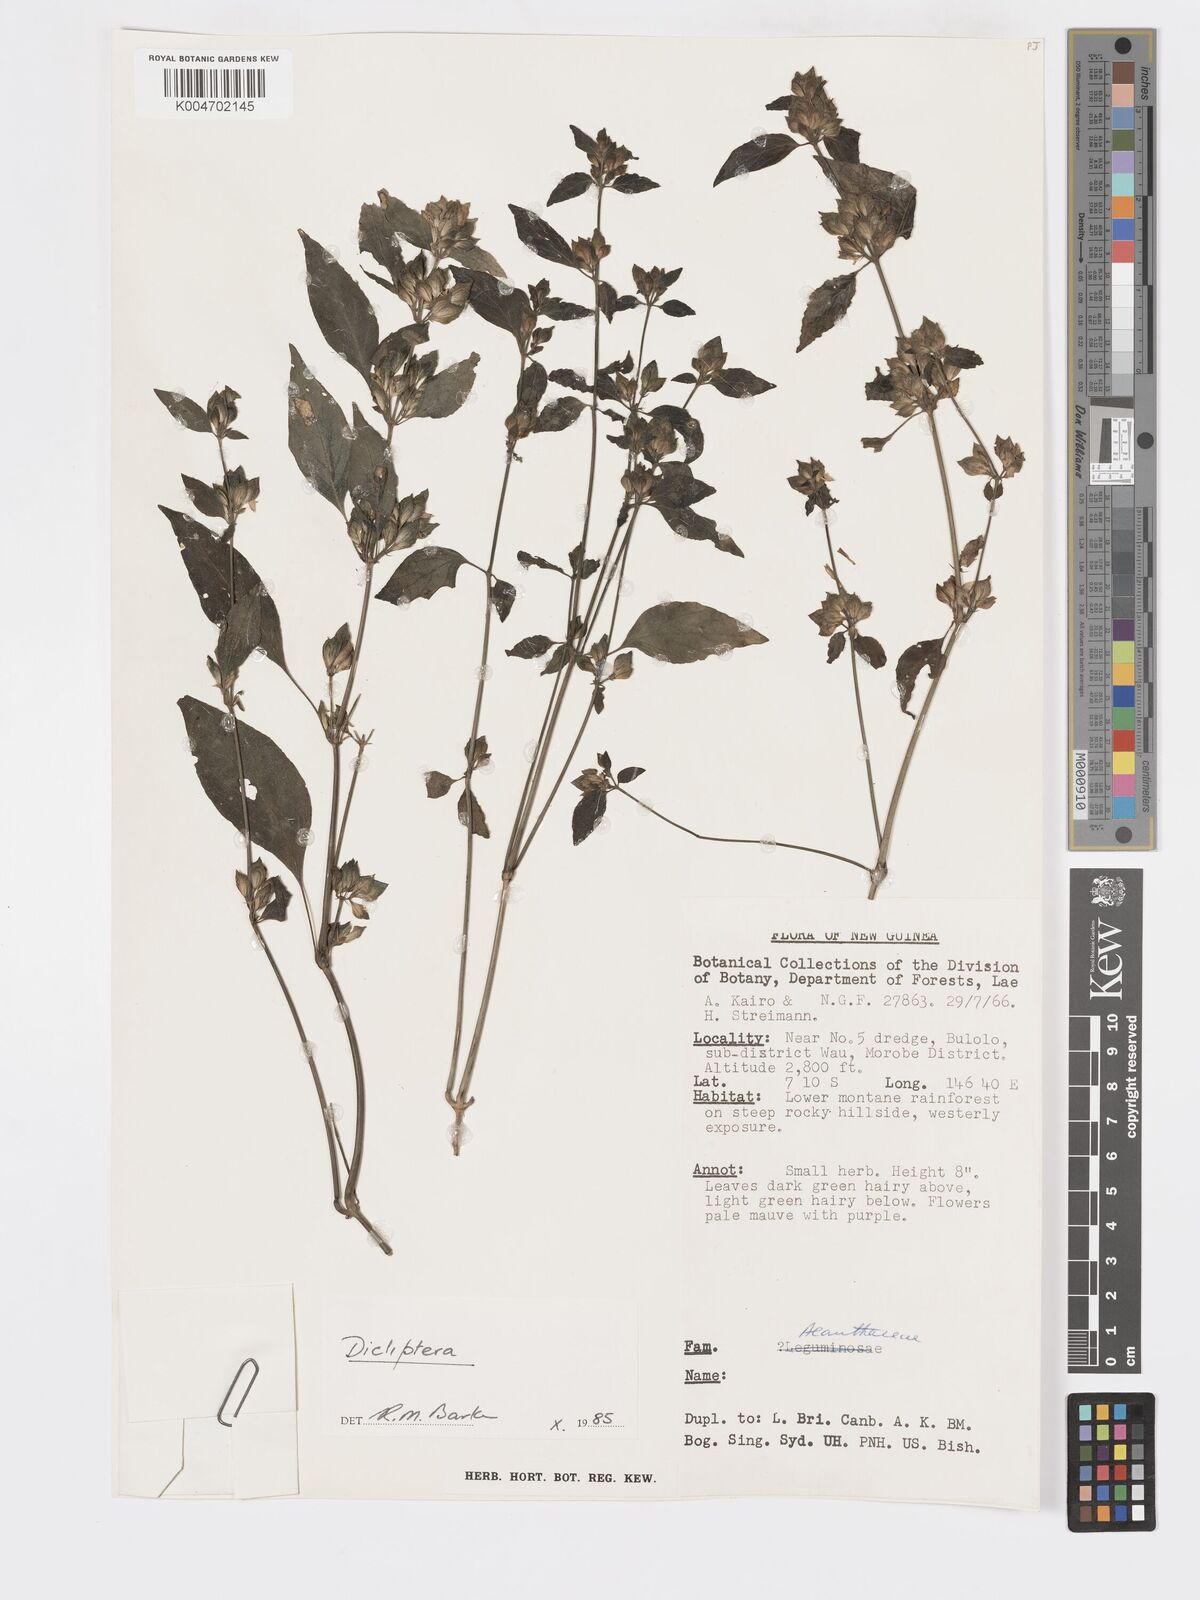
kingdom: Plantae
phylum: Tracheophyta
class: Magnoliopsida
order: Lamiales
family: Acanthaceae
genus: Dicliptera
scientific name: Dicliptera
